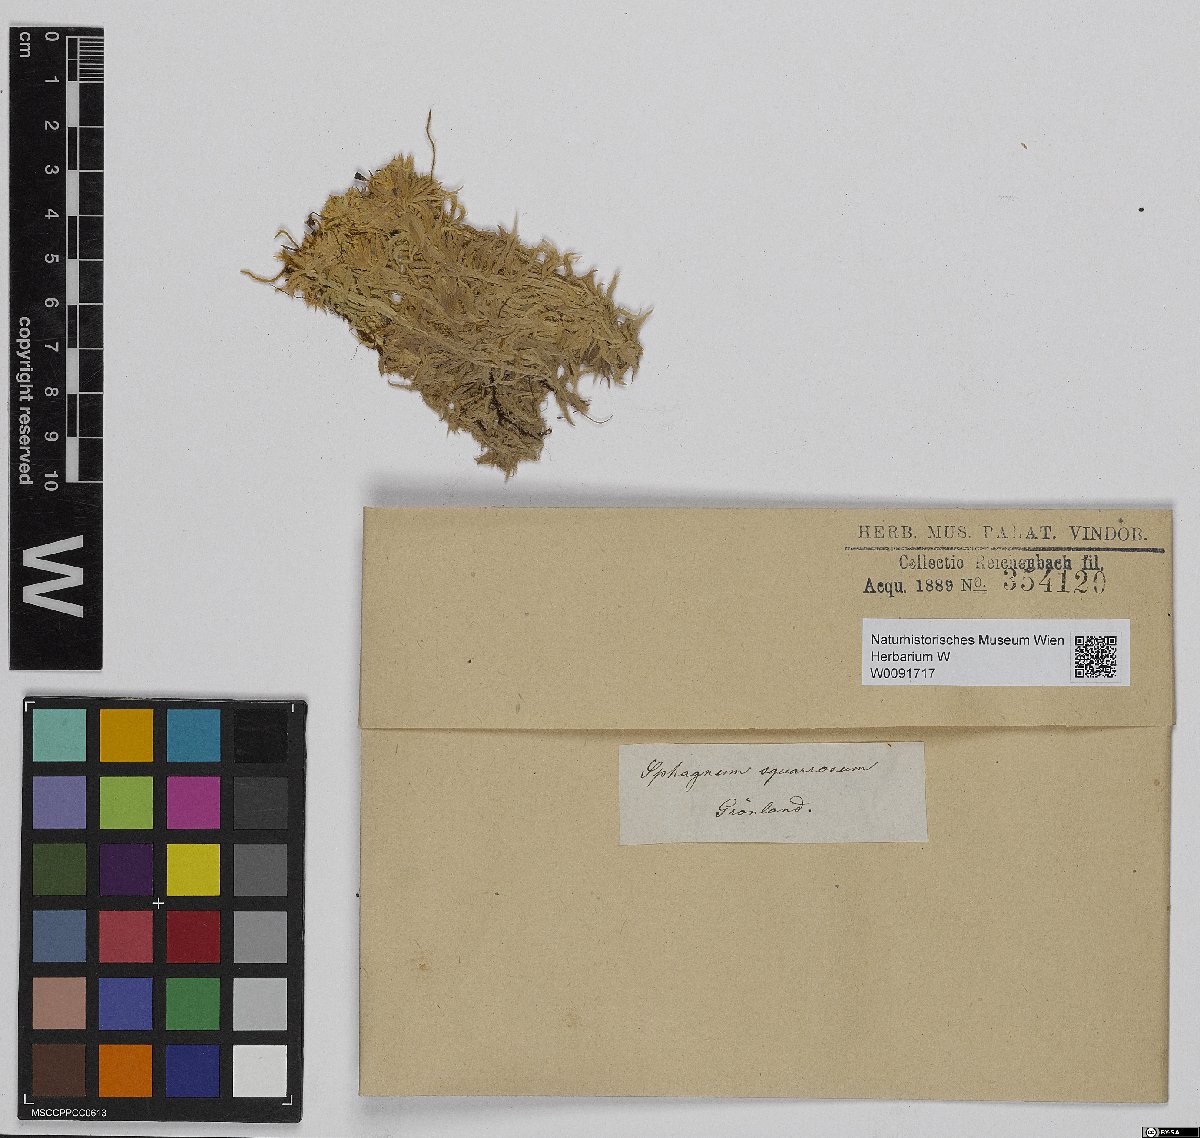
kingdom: Plantae
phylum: Bryophyta
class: Sphagnopsida
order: Sphagnales
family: Sphagnaceae
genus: Sphagnum
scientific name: Sphagnum squarrosum
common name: Shaggy peat moss
